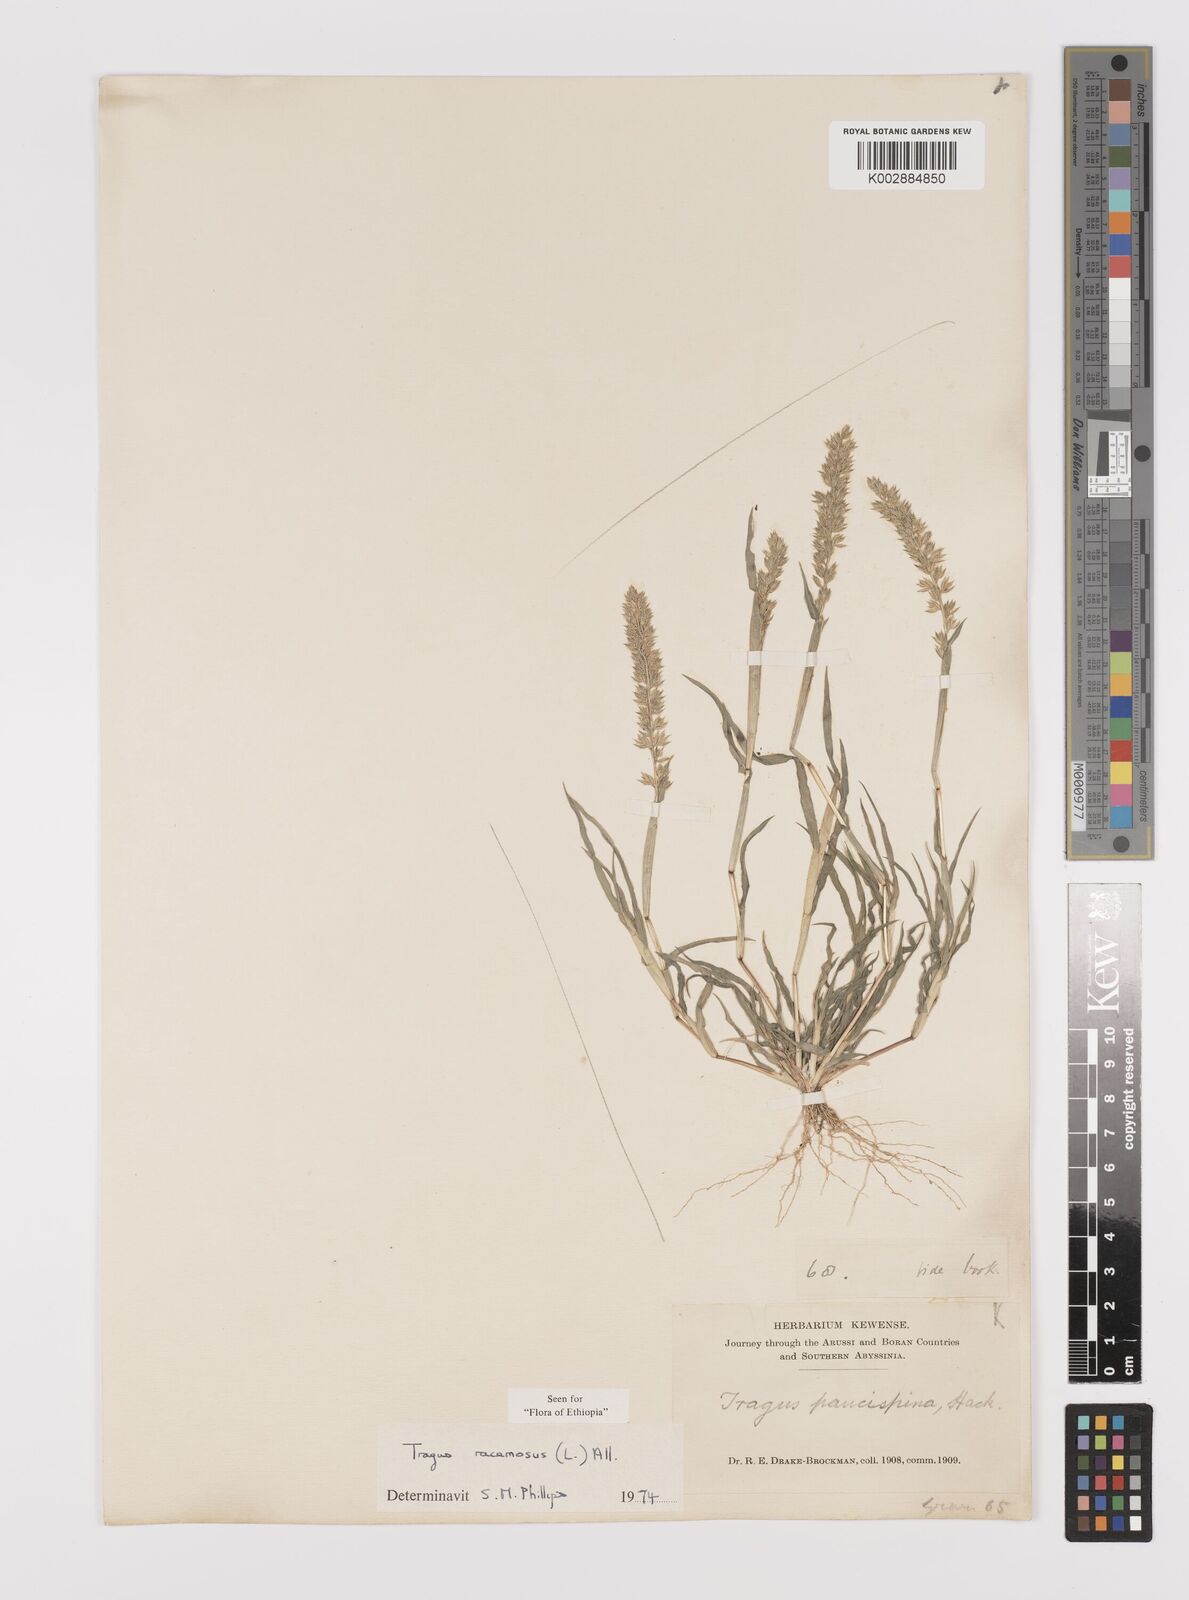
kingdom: Plantae
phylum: Tracheophyta
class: Liliopsida
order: Poales
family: Poaceae
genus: Tragus
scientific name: Tragus racemosus
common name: European bur-grass
